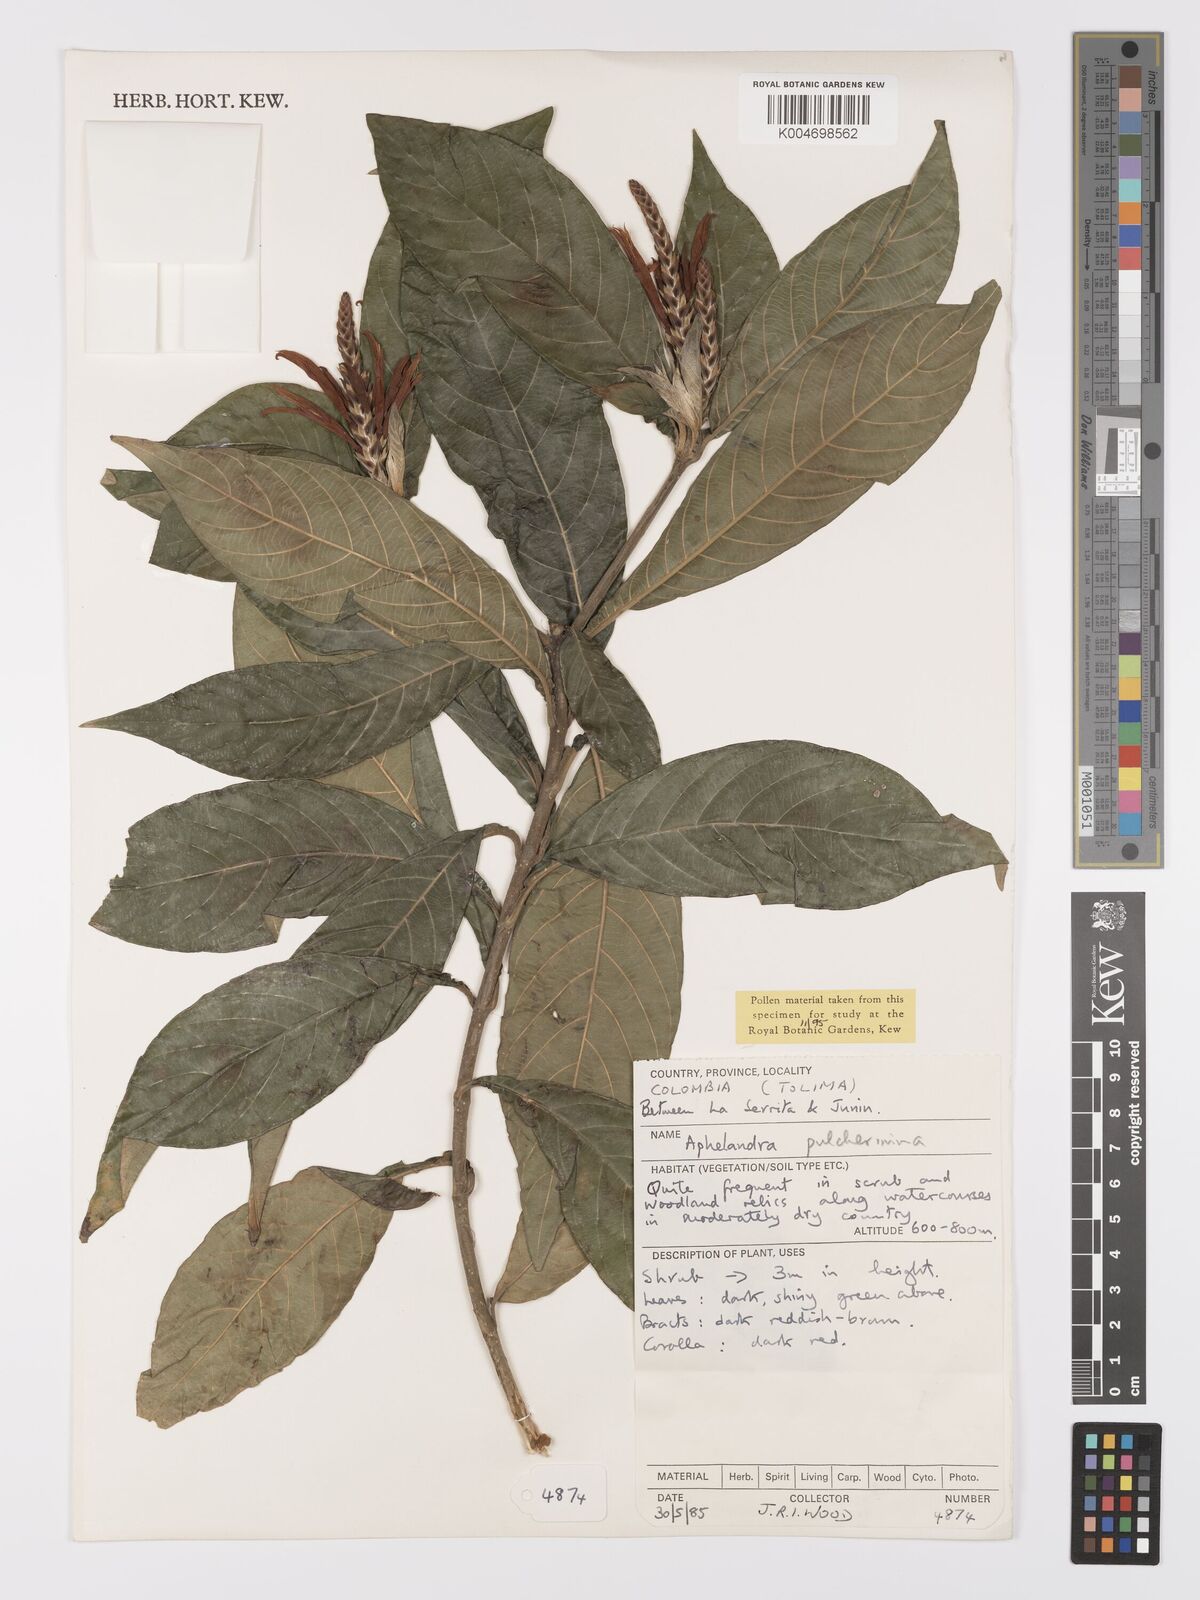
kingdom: Plantae
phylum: Tracheophyta
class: Magnoliopsida
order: Lamiales
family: Acanthaceae
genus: Aphelandra
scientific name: Aphelandra glabrata
